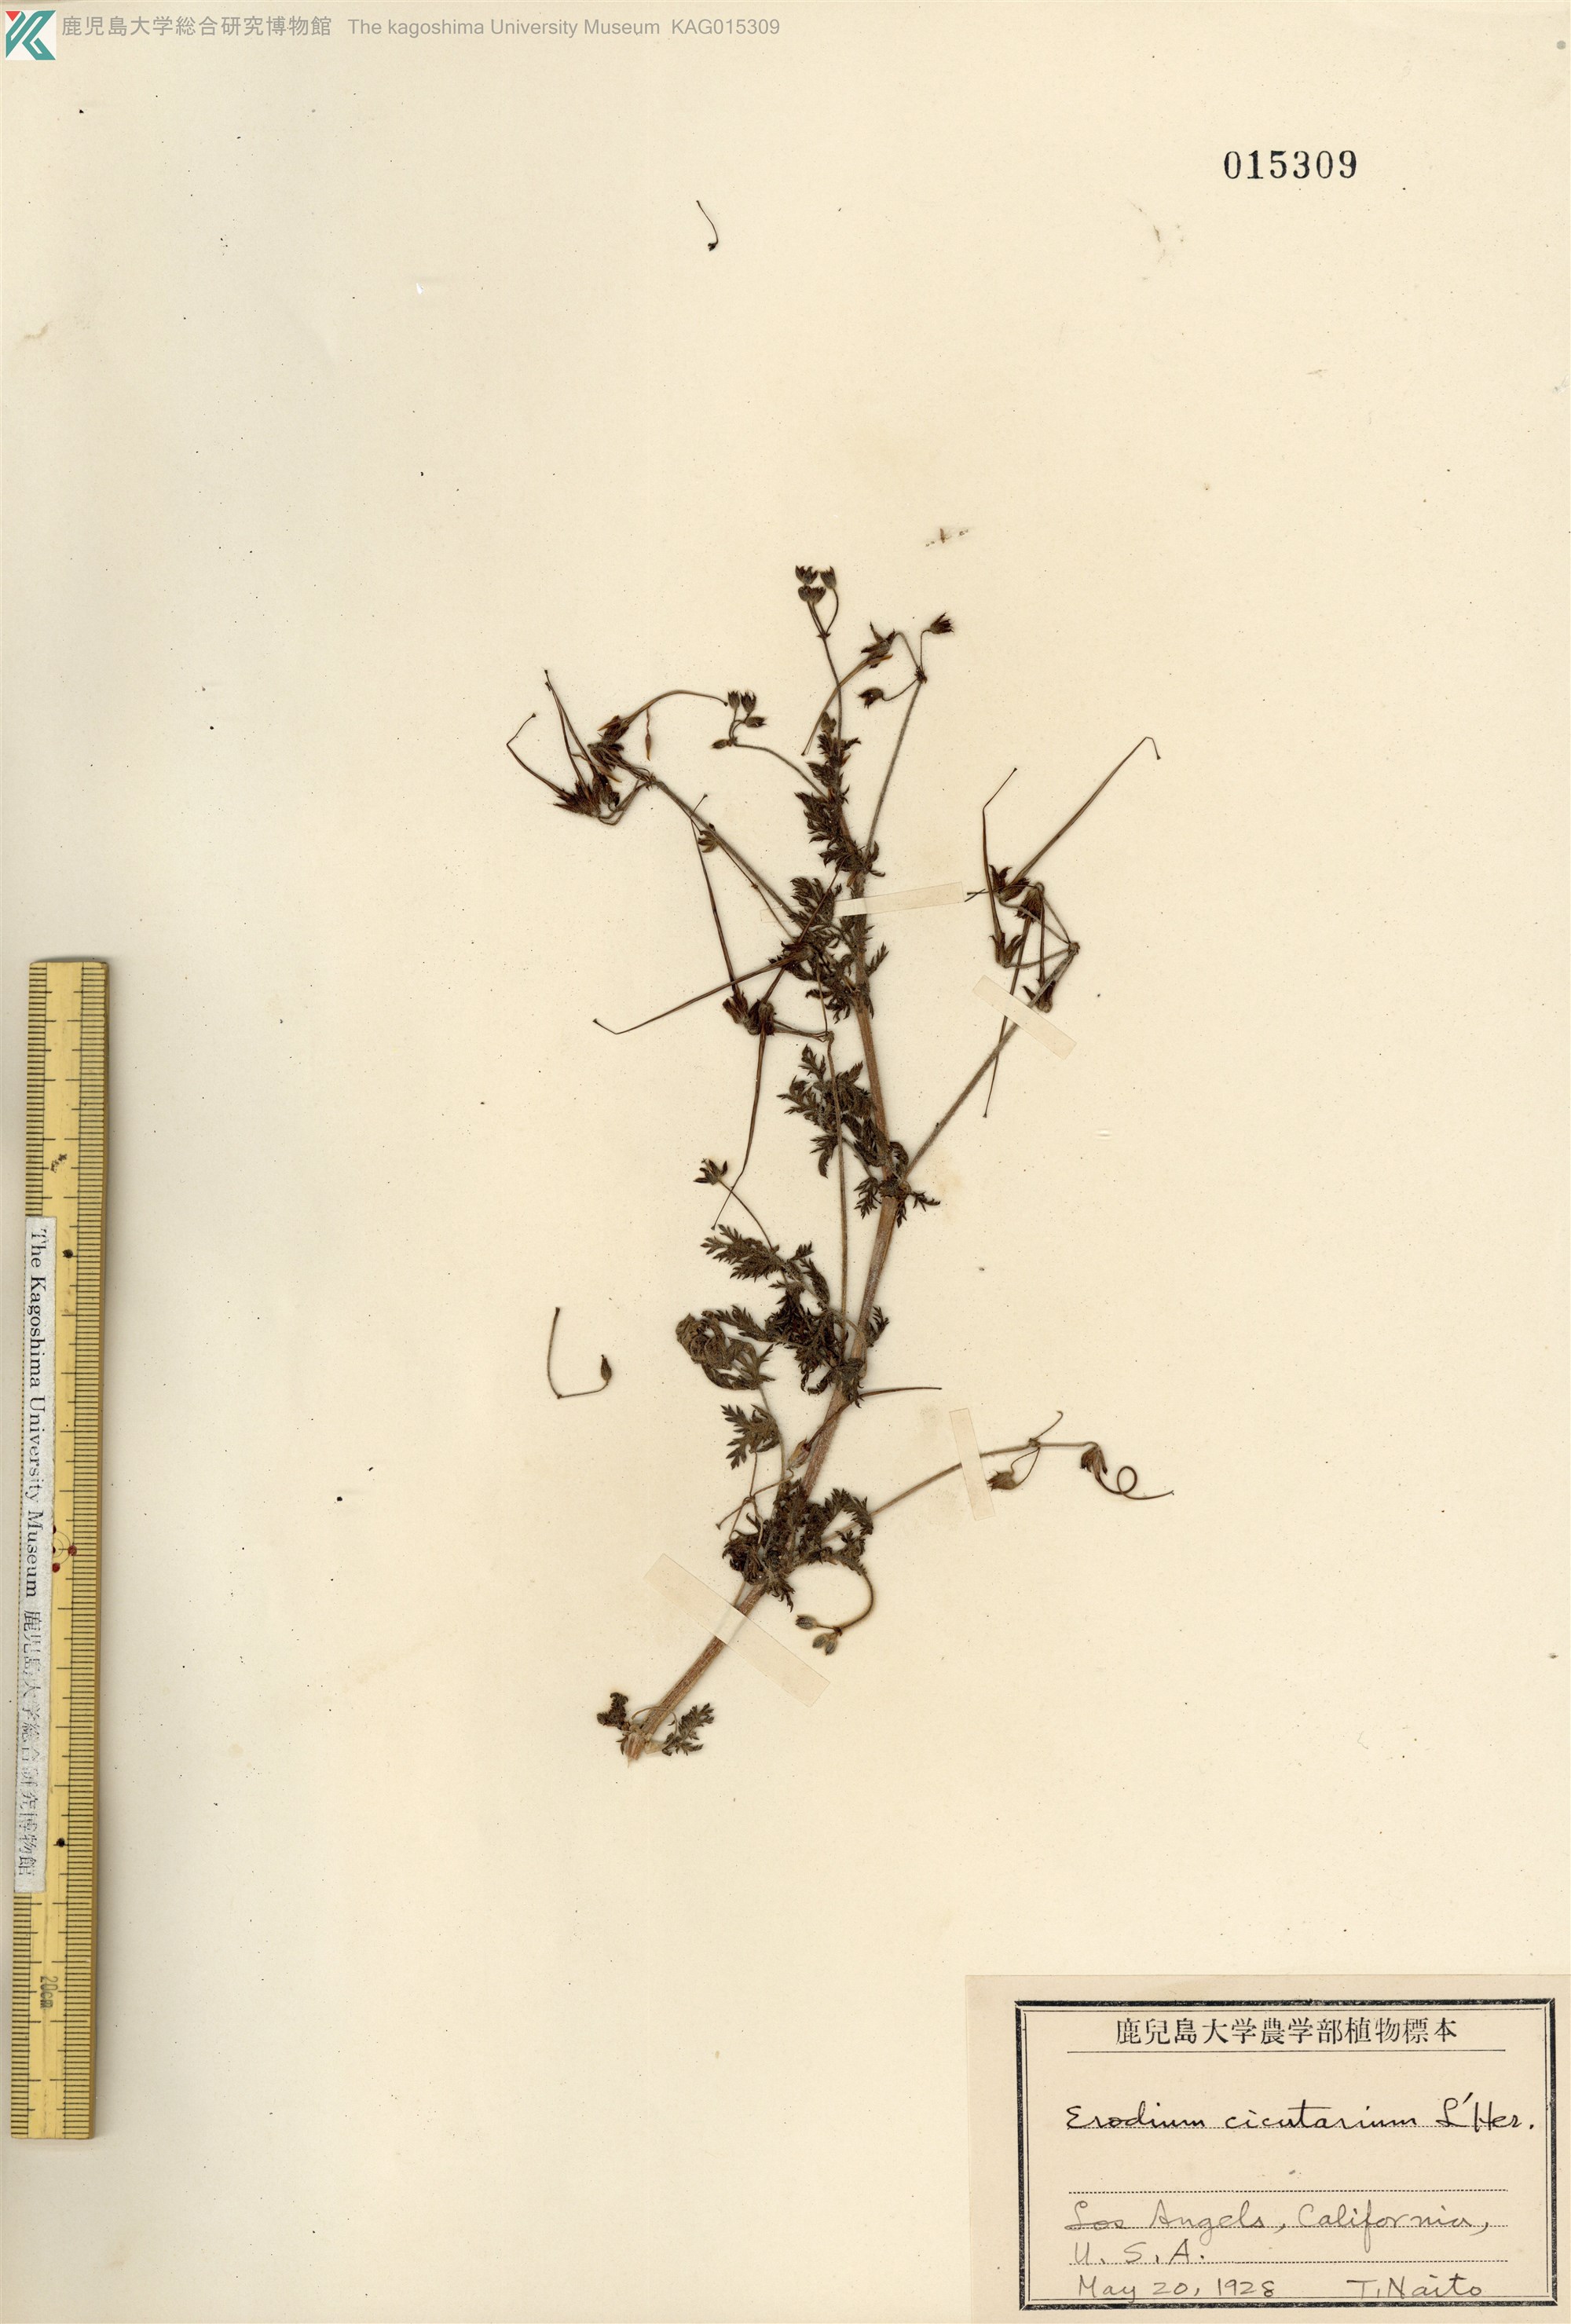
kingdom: Plantae
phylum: Tracheophyta
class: Magnoliopsida
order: Geraniales
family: Geraniaceae
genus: Erodium
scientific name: Erodium cicutarium
